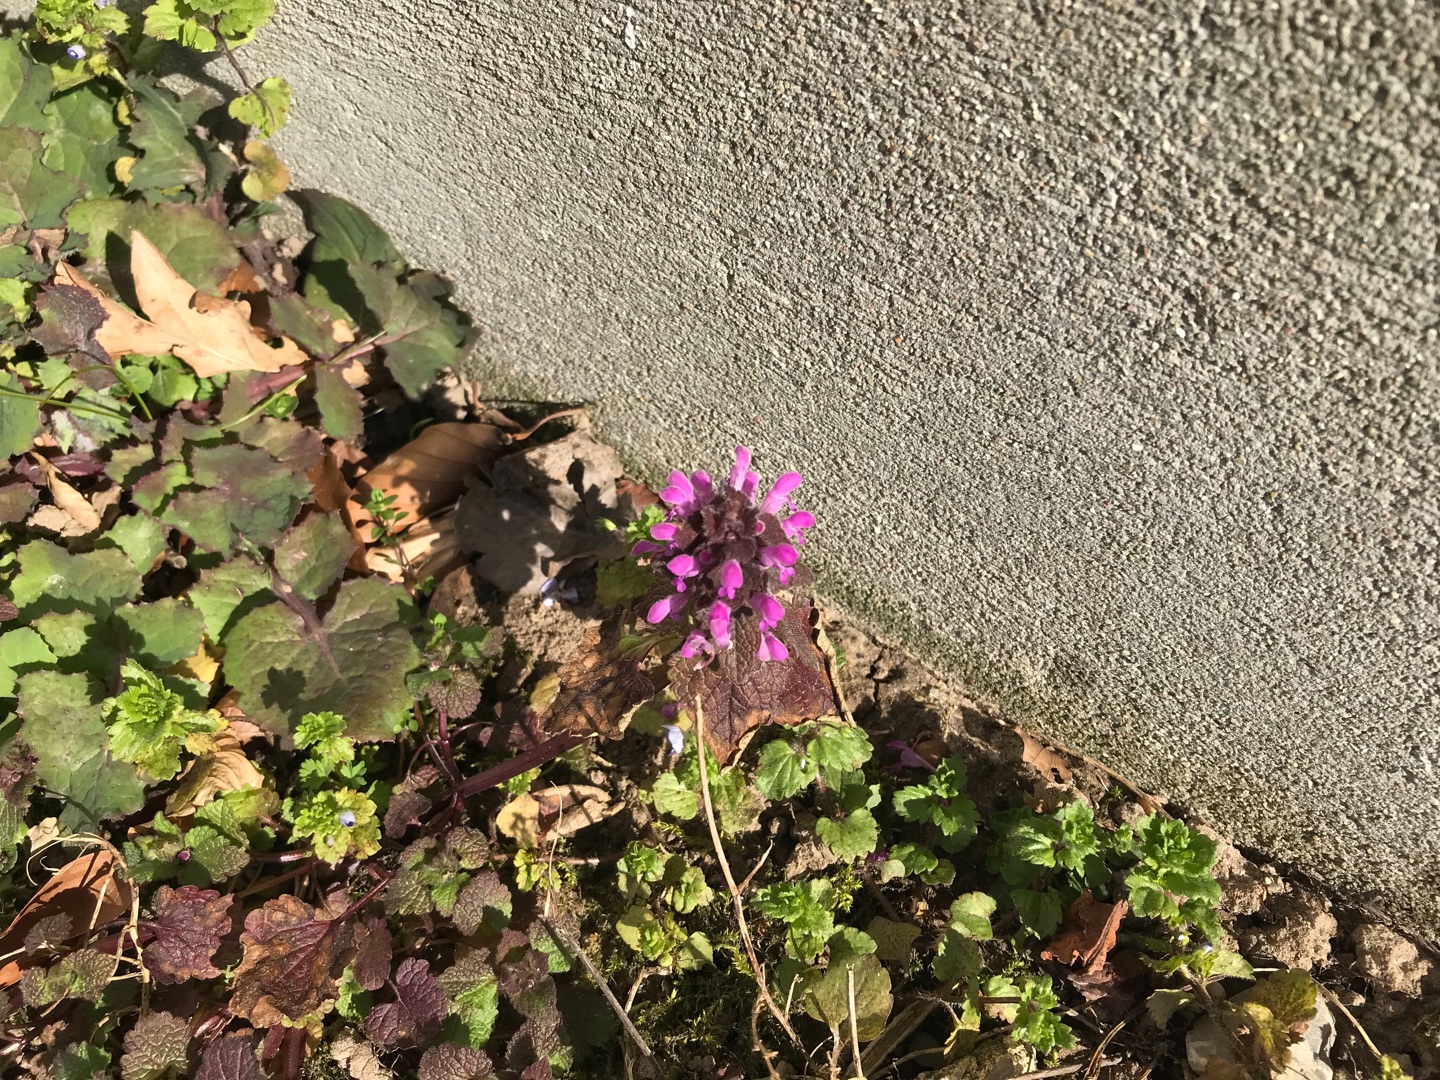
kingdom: Plantae
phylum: Tracheophyta
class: Magnoliopsida
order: Lamiales
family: Lamiaceae
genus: Lamium
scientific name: Lamium purpureum
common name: Rød tvetand
